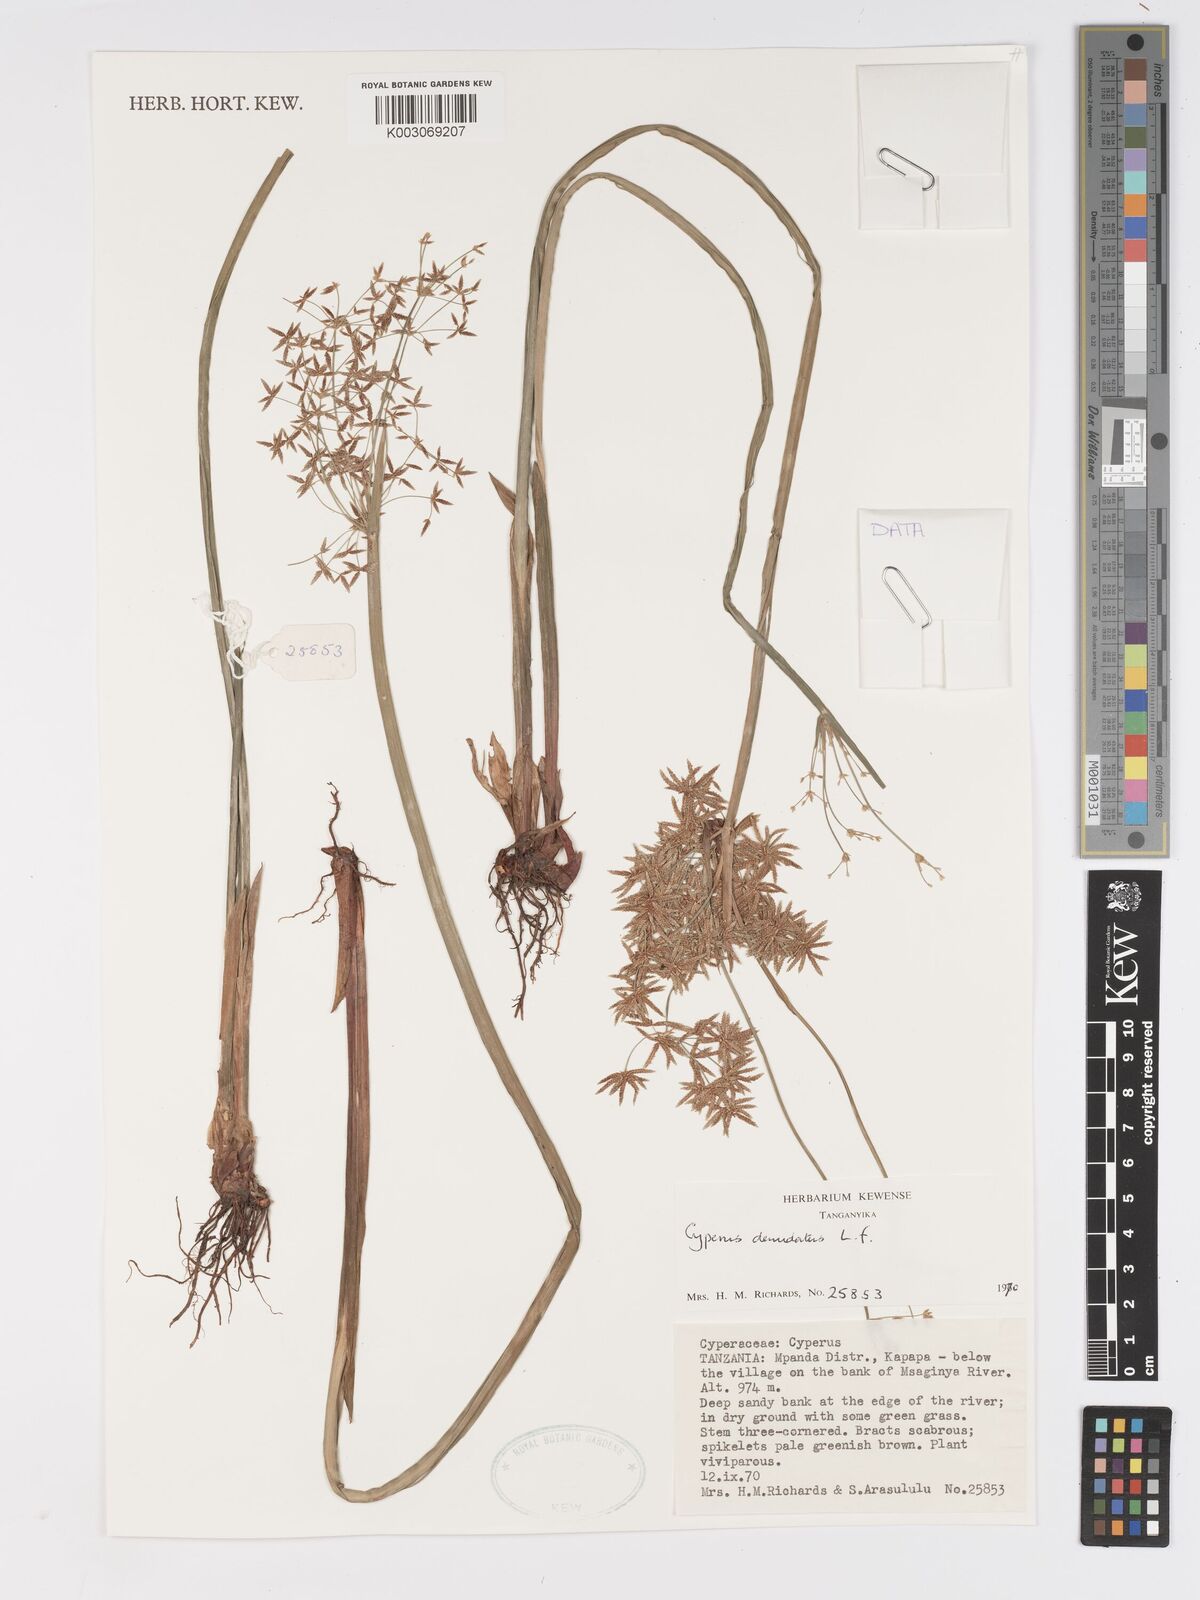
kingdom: Plantae
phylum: Tracheophyta
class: Liliopsida
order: Poales
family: Cyperaceae
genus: Cyperus
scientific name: Cyperus denudatus
